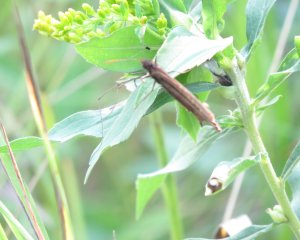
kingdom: Animalia
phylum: Arthropoda
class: Insecta
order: Lepidoptera
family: Nymphalidae
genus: Cercyonis
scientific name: Cercyonis pegala
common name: Common Wood-Nymph
